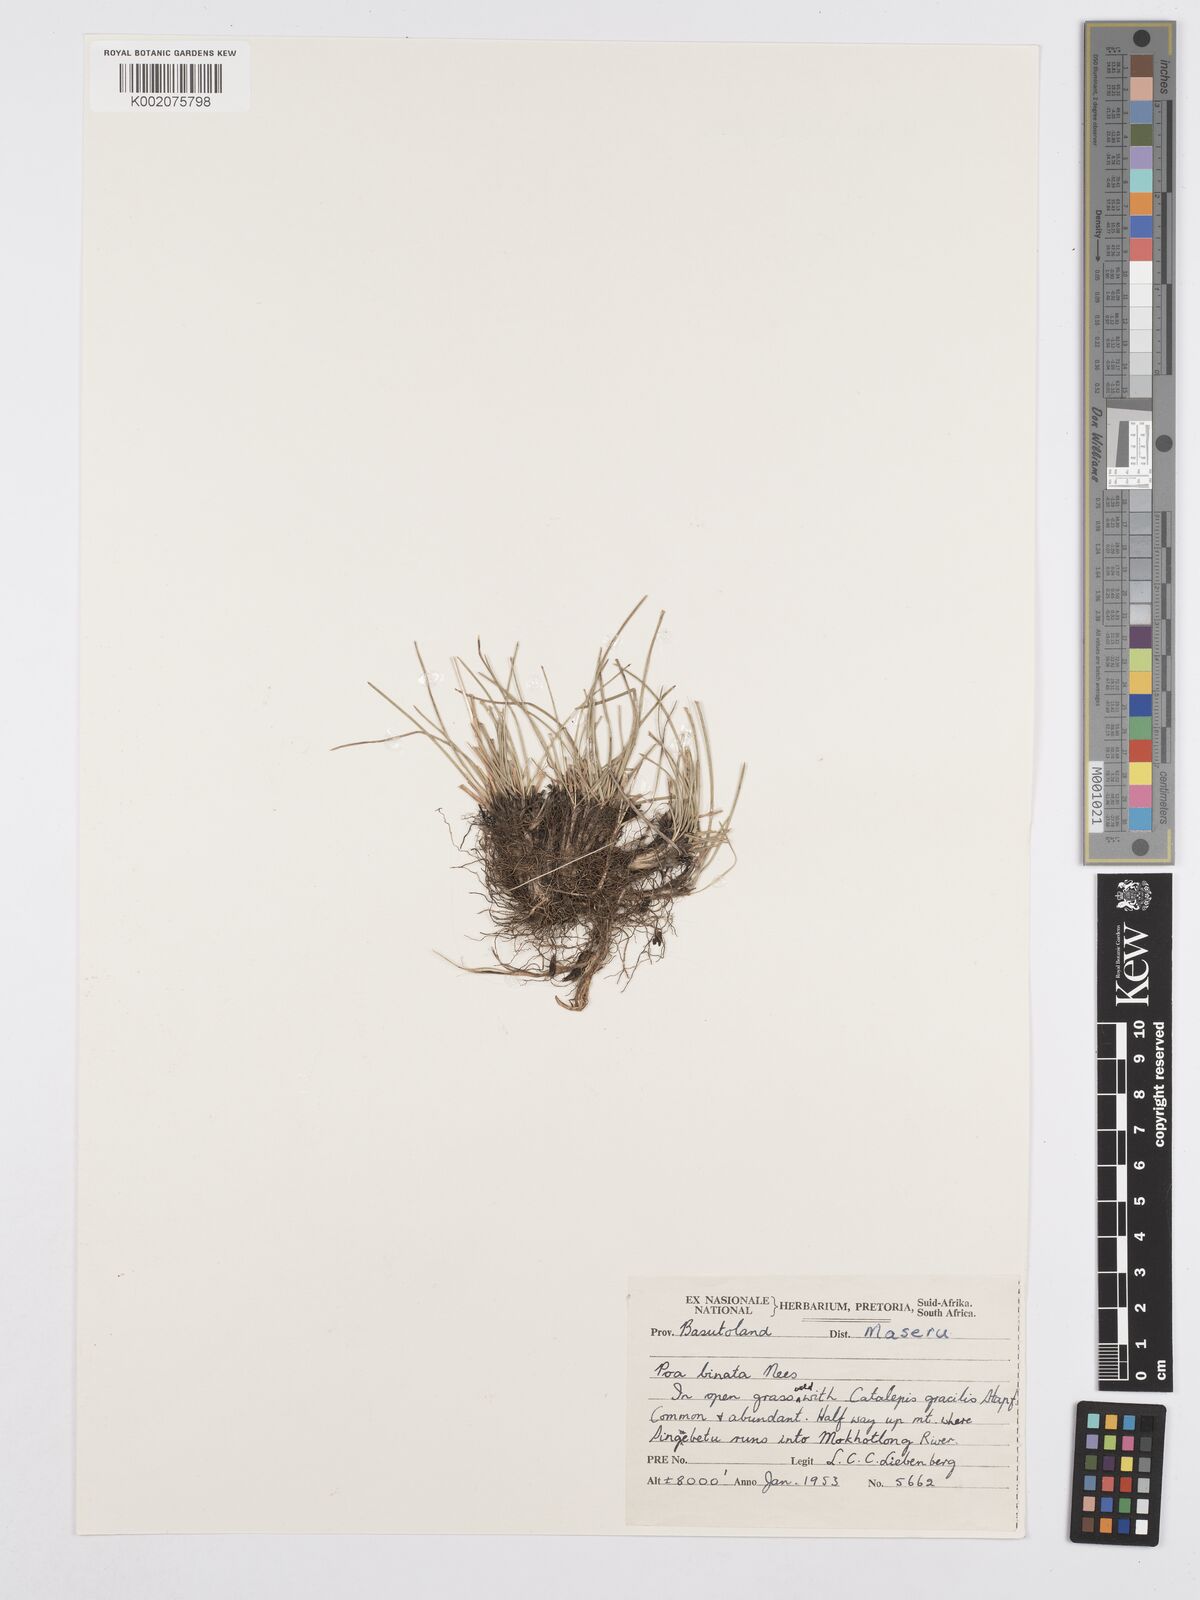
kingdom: Plantae
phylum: Tracheophyta
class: Liliopsida
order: Poales
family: Poaceae
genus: Poa
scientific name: Poa binata
